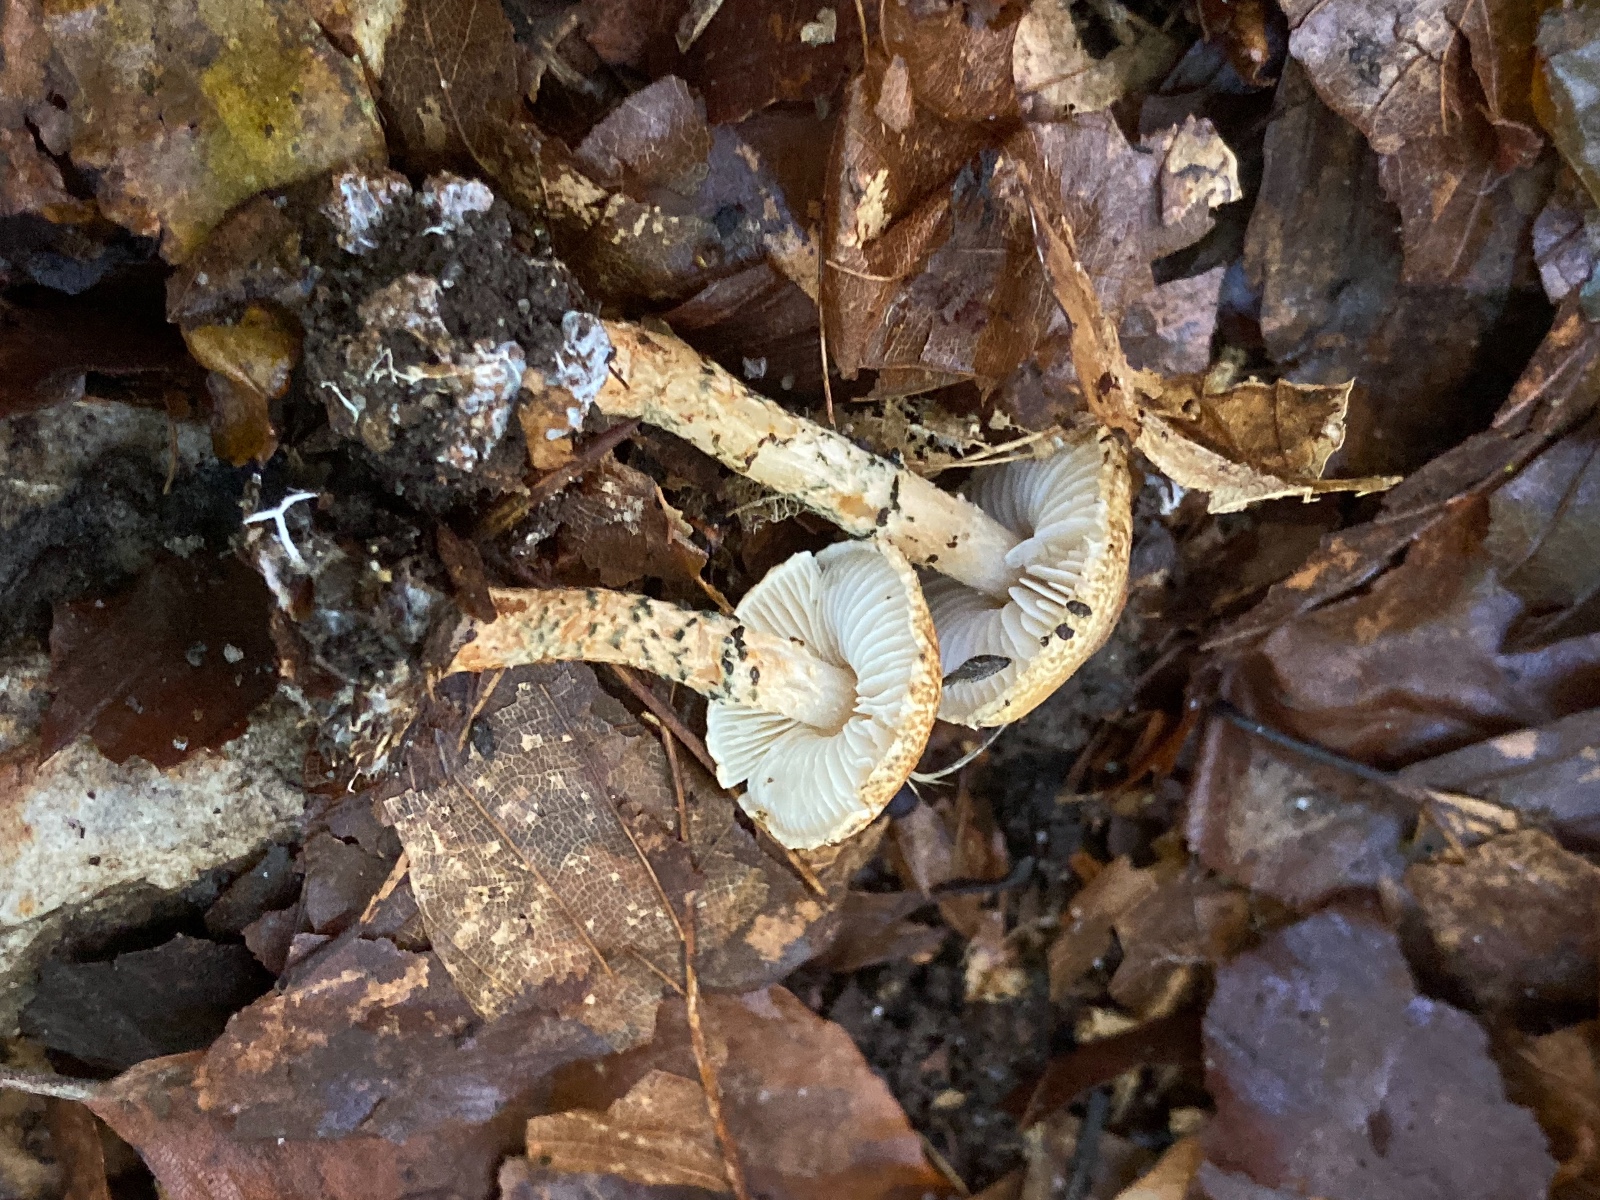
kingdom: Fungi
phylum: Basidiomycota
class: Agaricomycetes
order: Agaricales
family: Agaricaceae
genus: Lepiota
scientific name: Lepiota grangei
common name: grønskællet parasolhat
